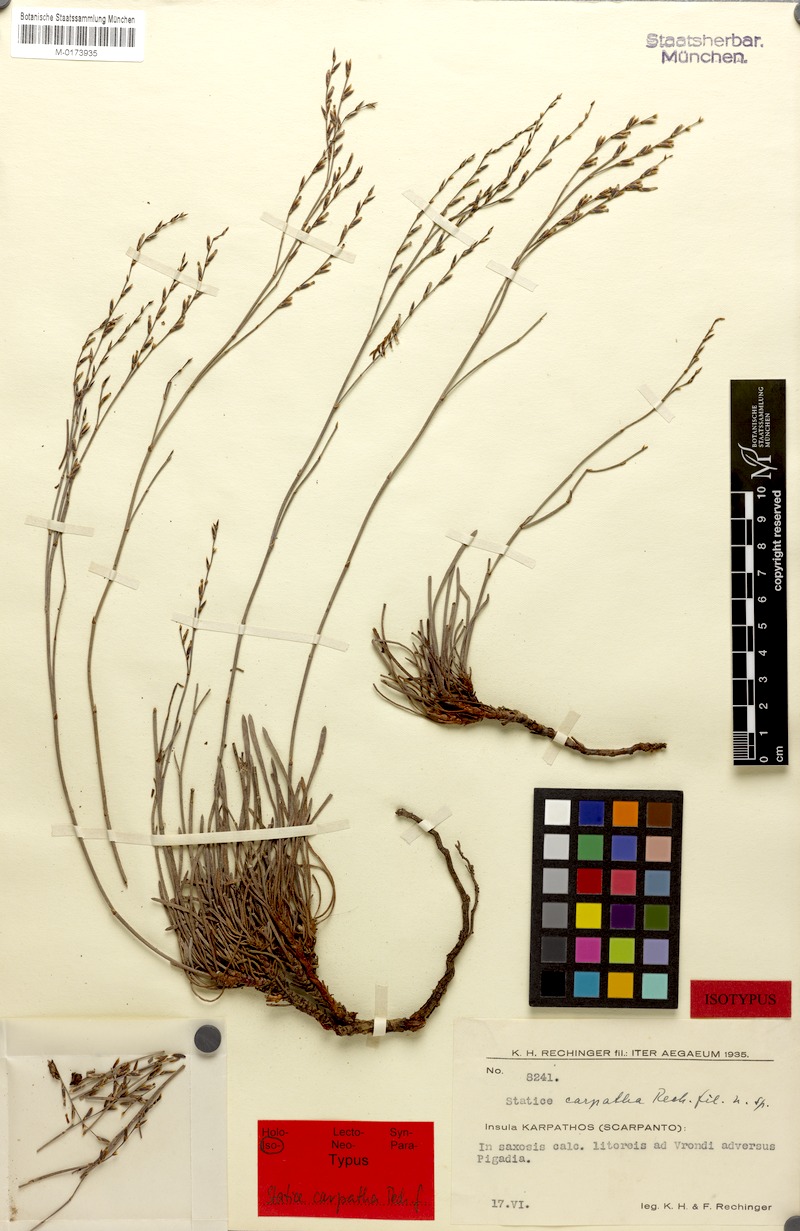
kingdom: Plantae
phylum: Tracheophyta
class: Magnoliopsida
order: Caryophyllales
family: Plumbaginaceae
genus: Limonium
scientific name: Limonium carpathum
